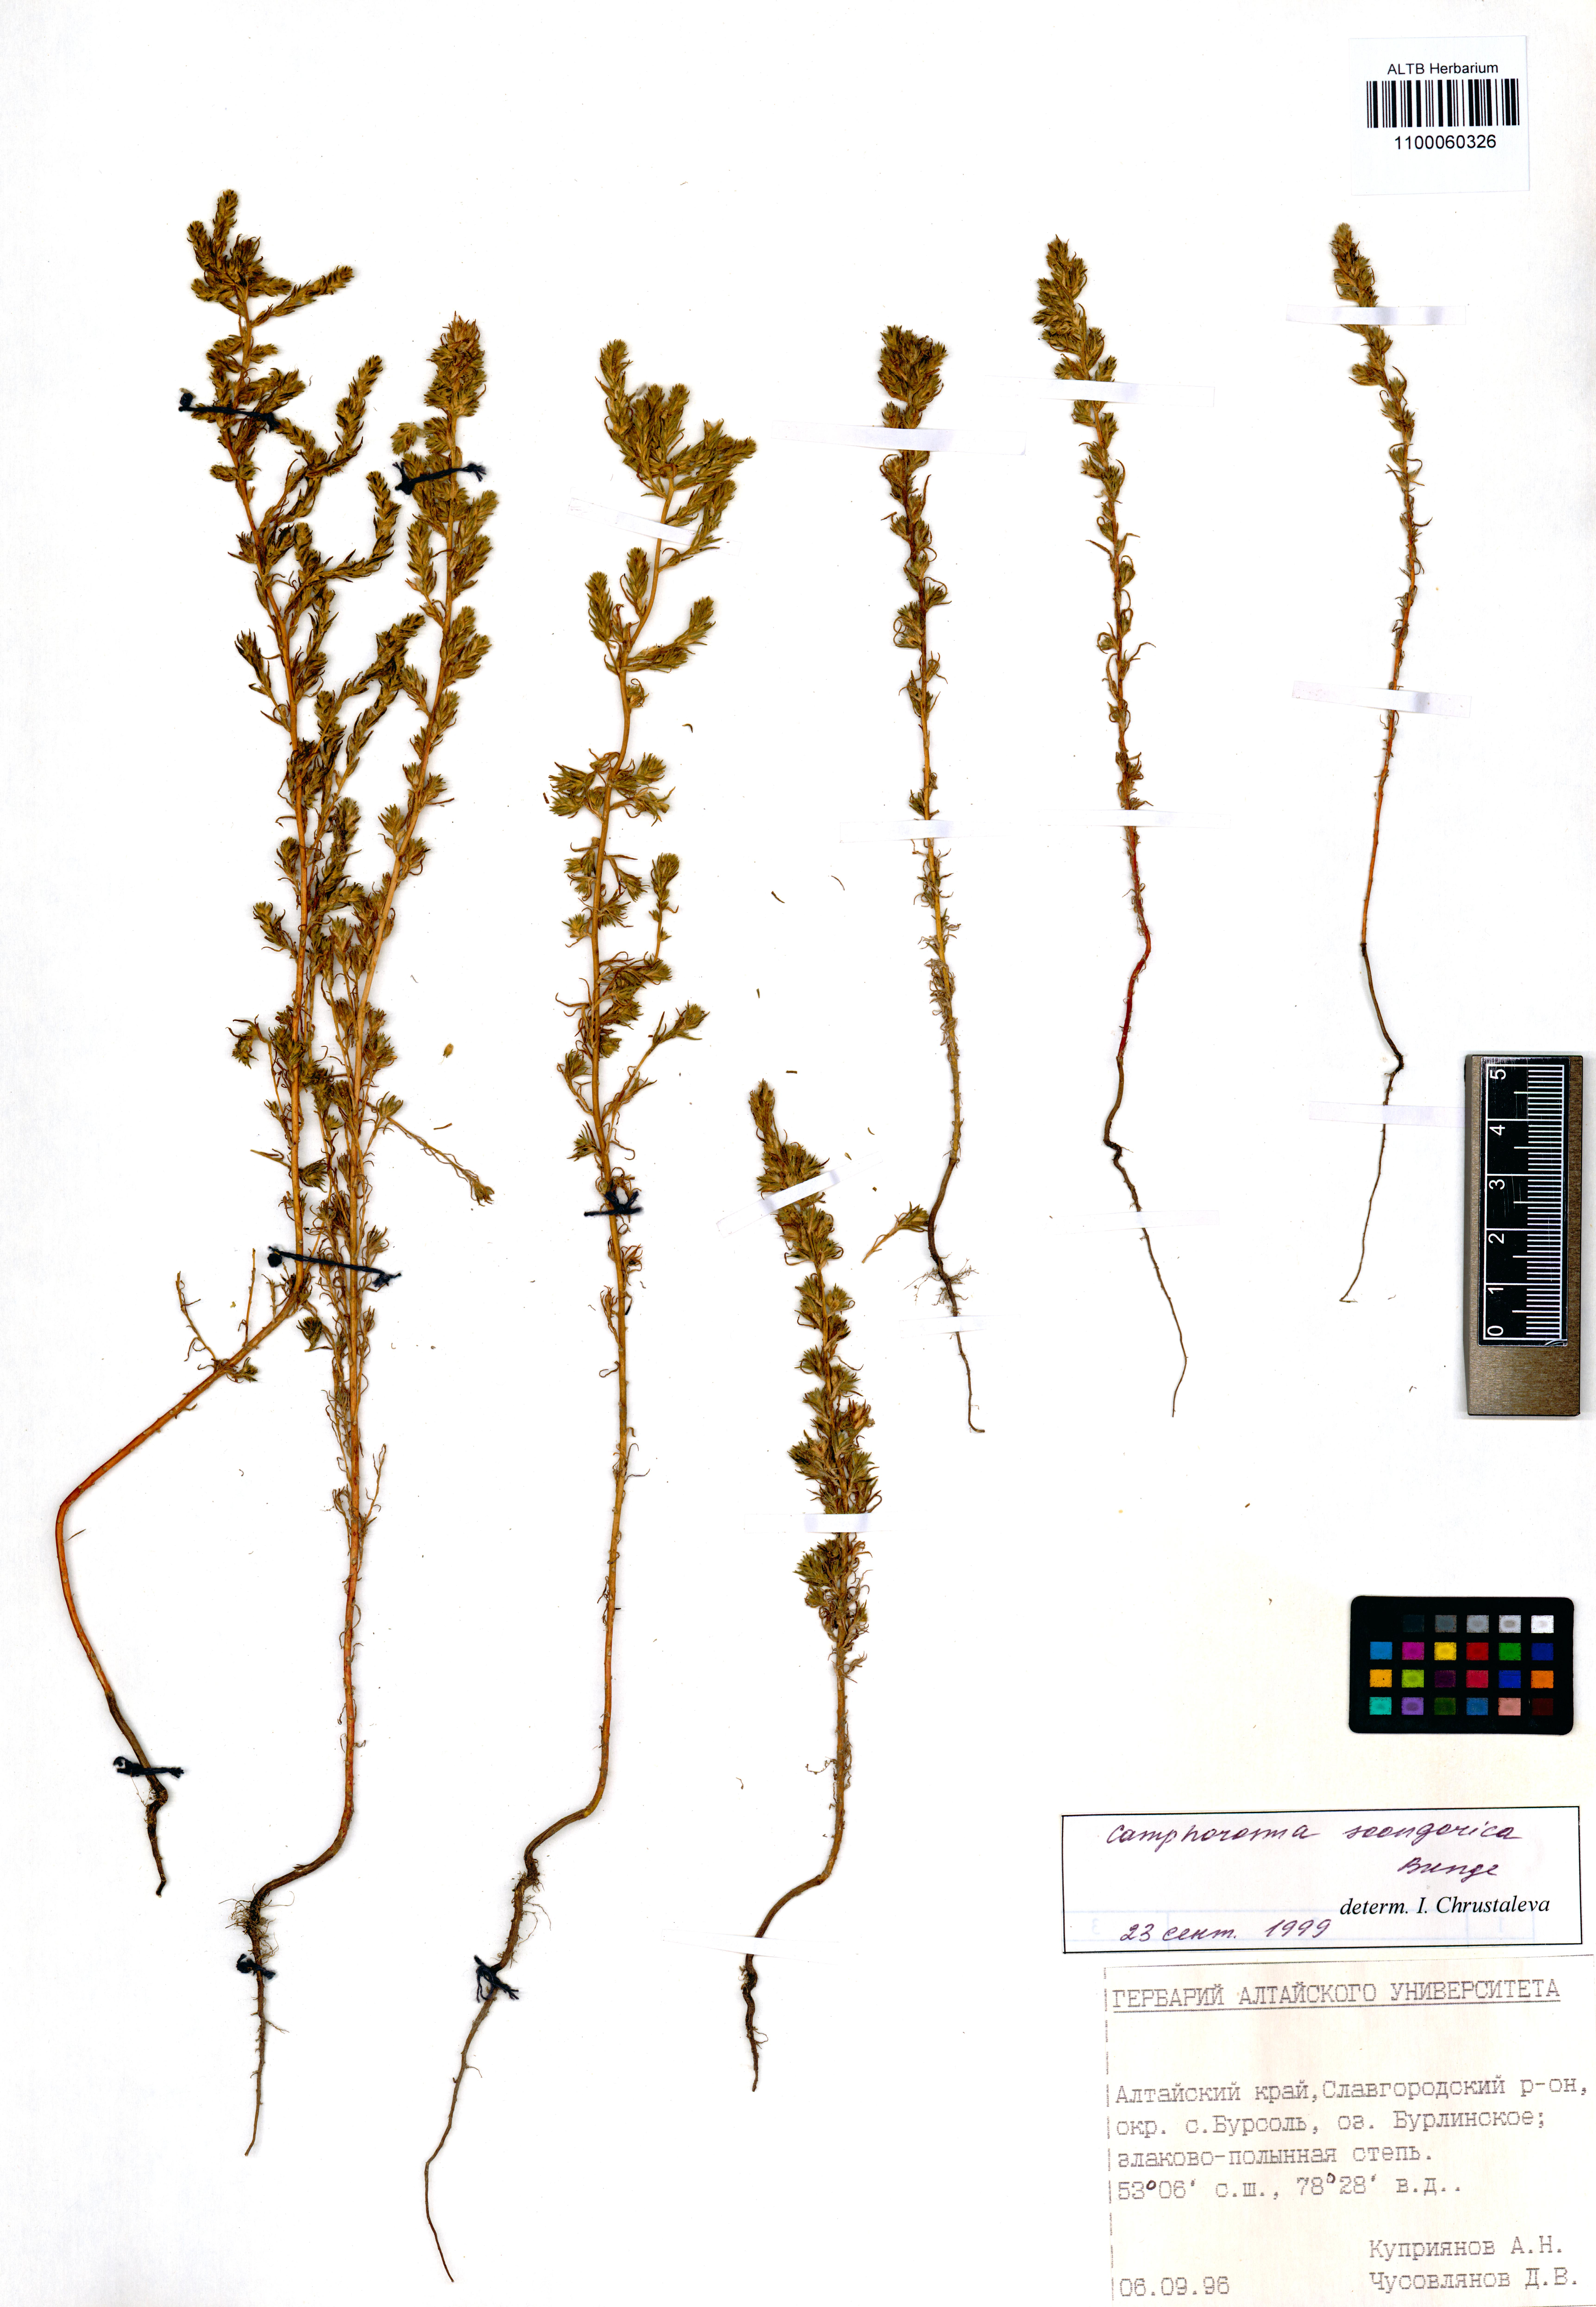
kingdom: Plantae
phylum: Tracheophyta
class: Magnoliopsida
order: Caryophyllales
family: Amaranthaceae
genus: Camphorosma
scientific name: Camphorosma songorica
